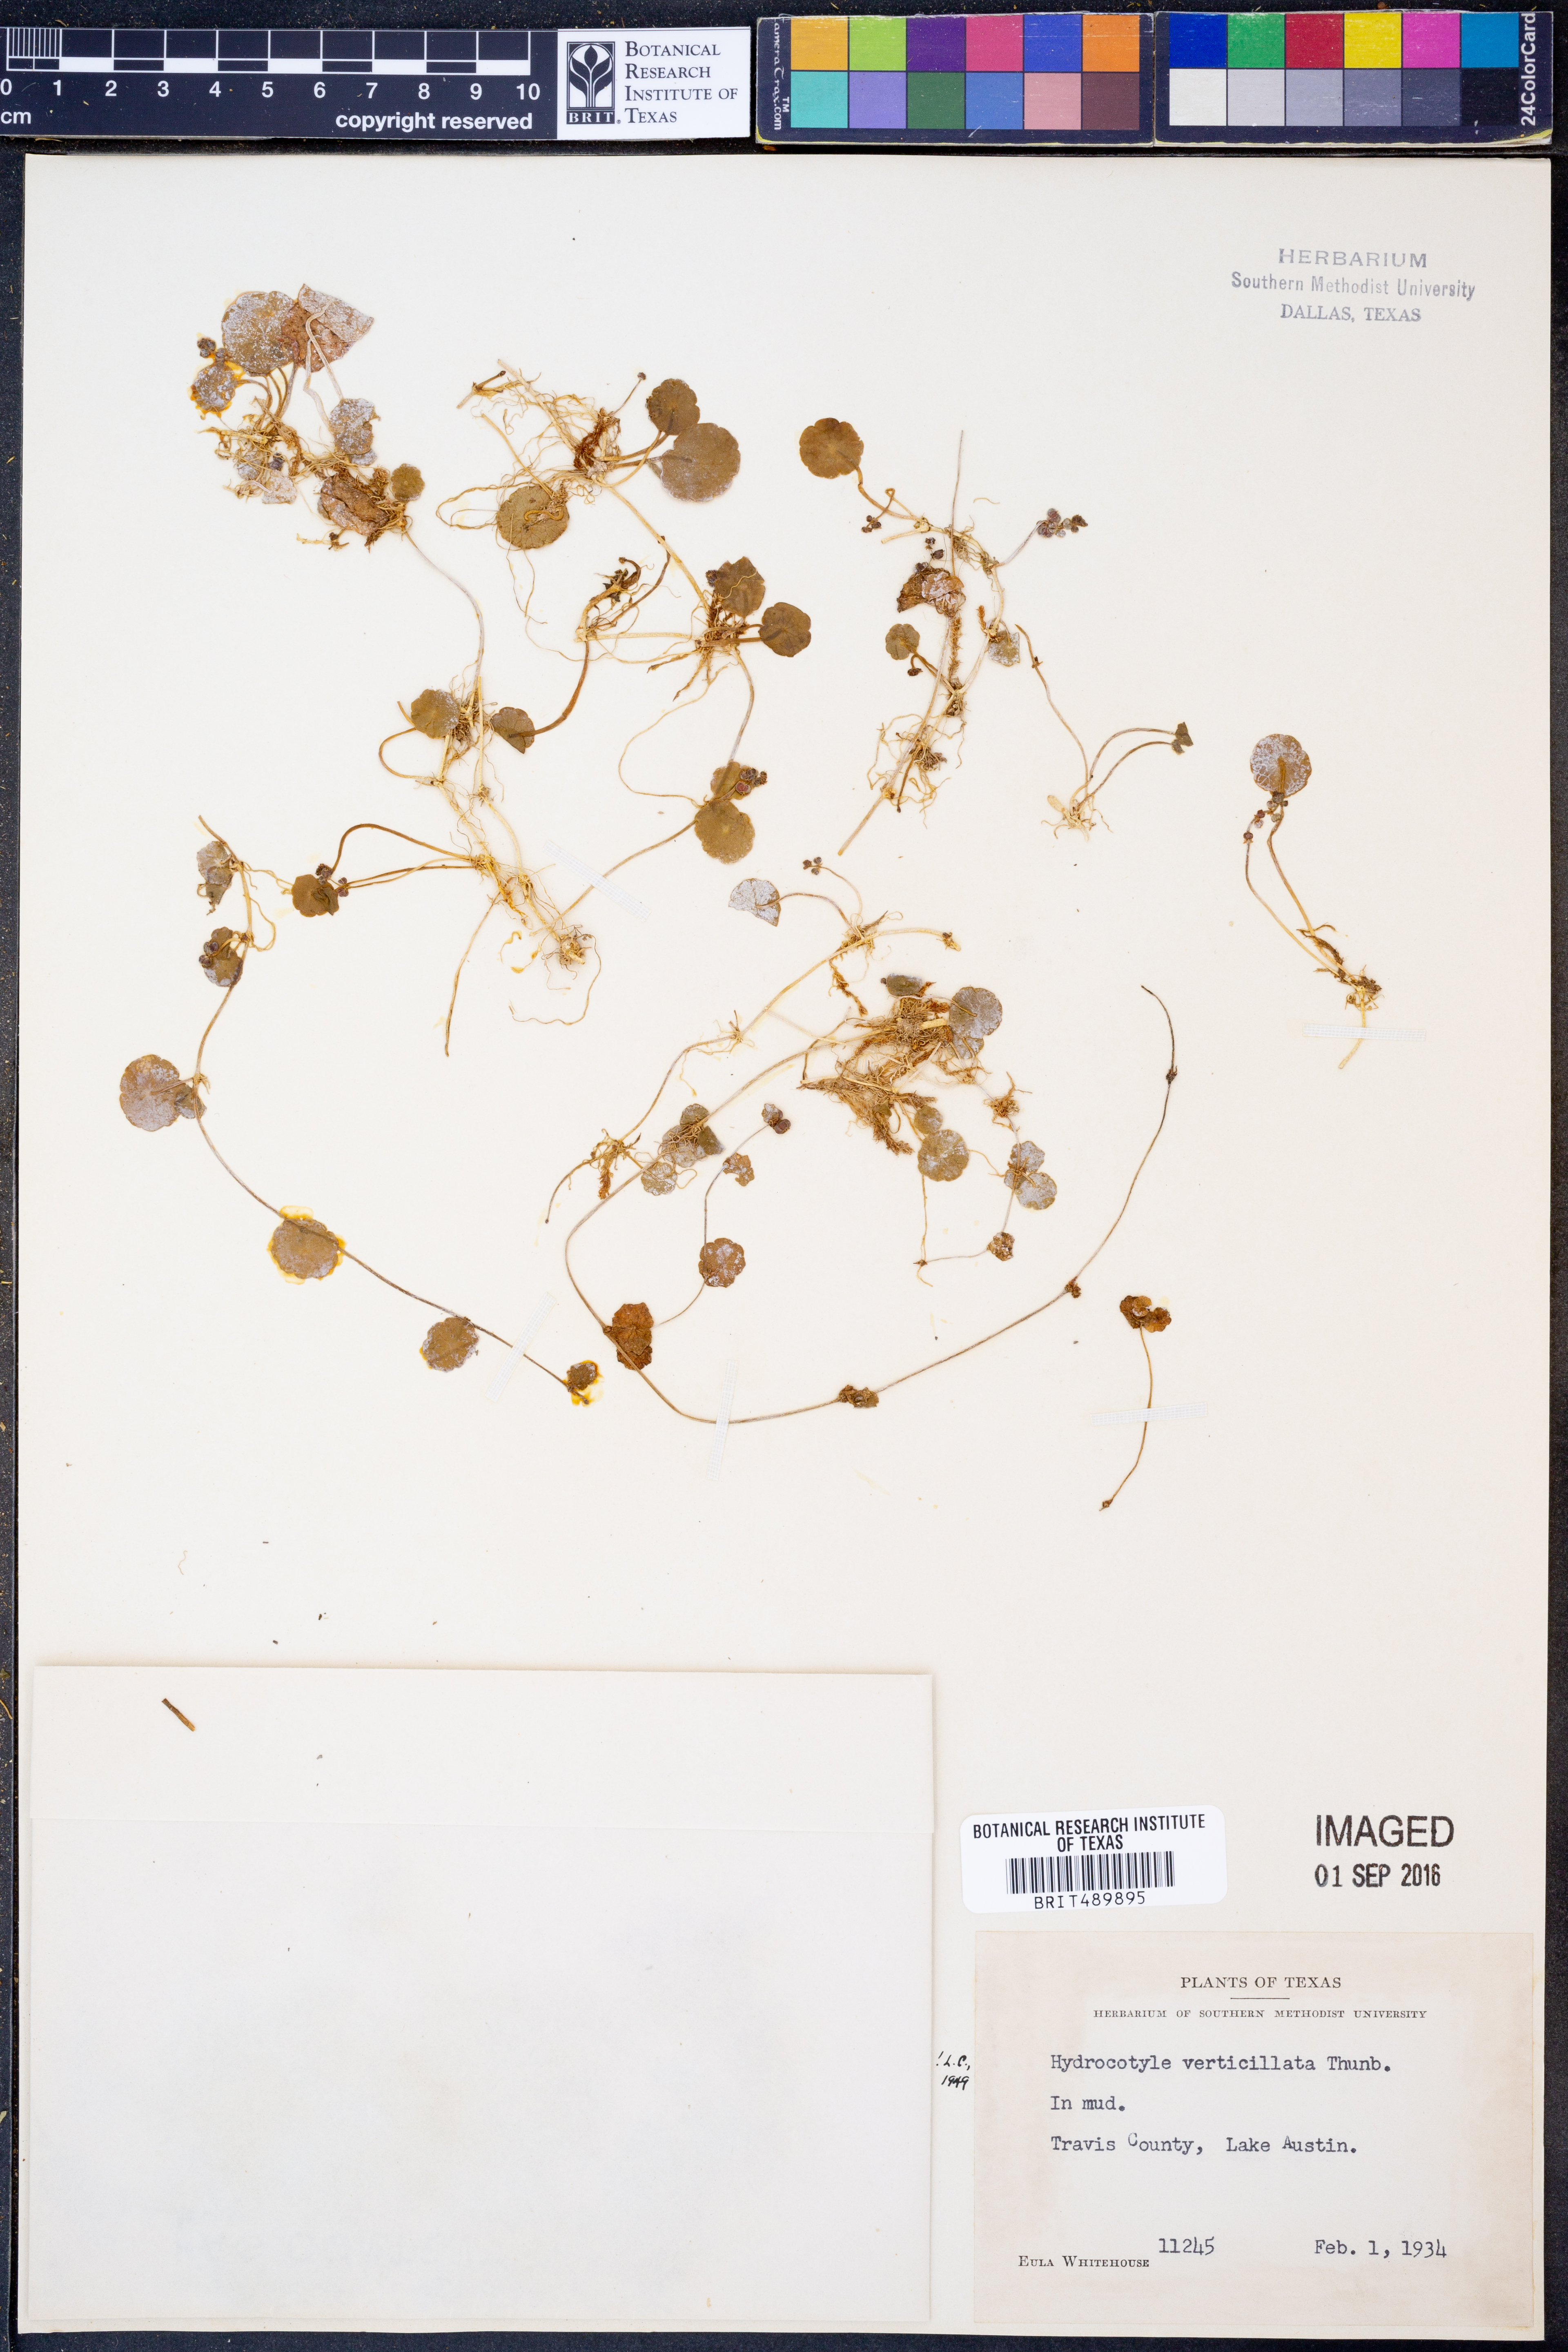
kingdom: Plantae
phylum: Tracheophyta
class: Magnoliopsida
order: Apiales
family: Araliaceae
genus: Hydrocotyle
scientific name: Hydrocotyle verticillata
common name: Whorled marshpennywort
